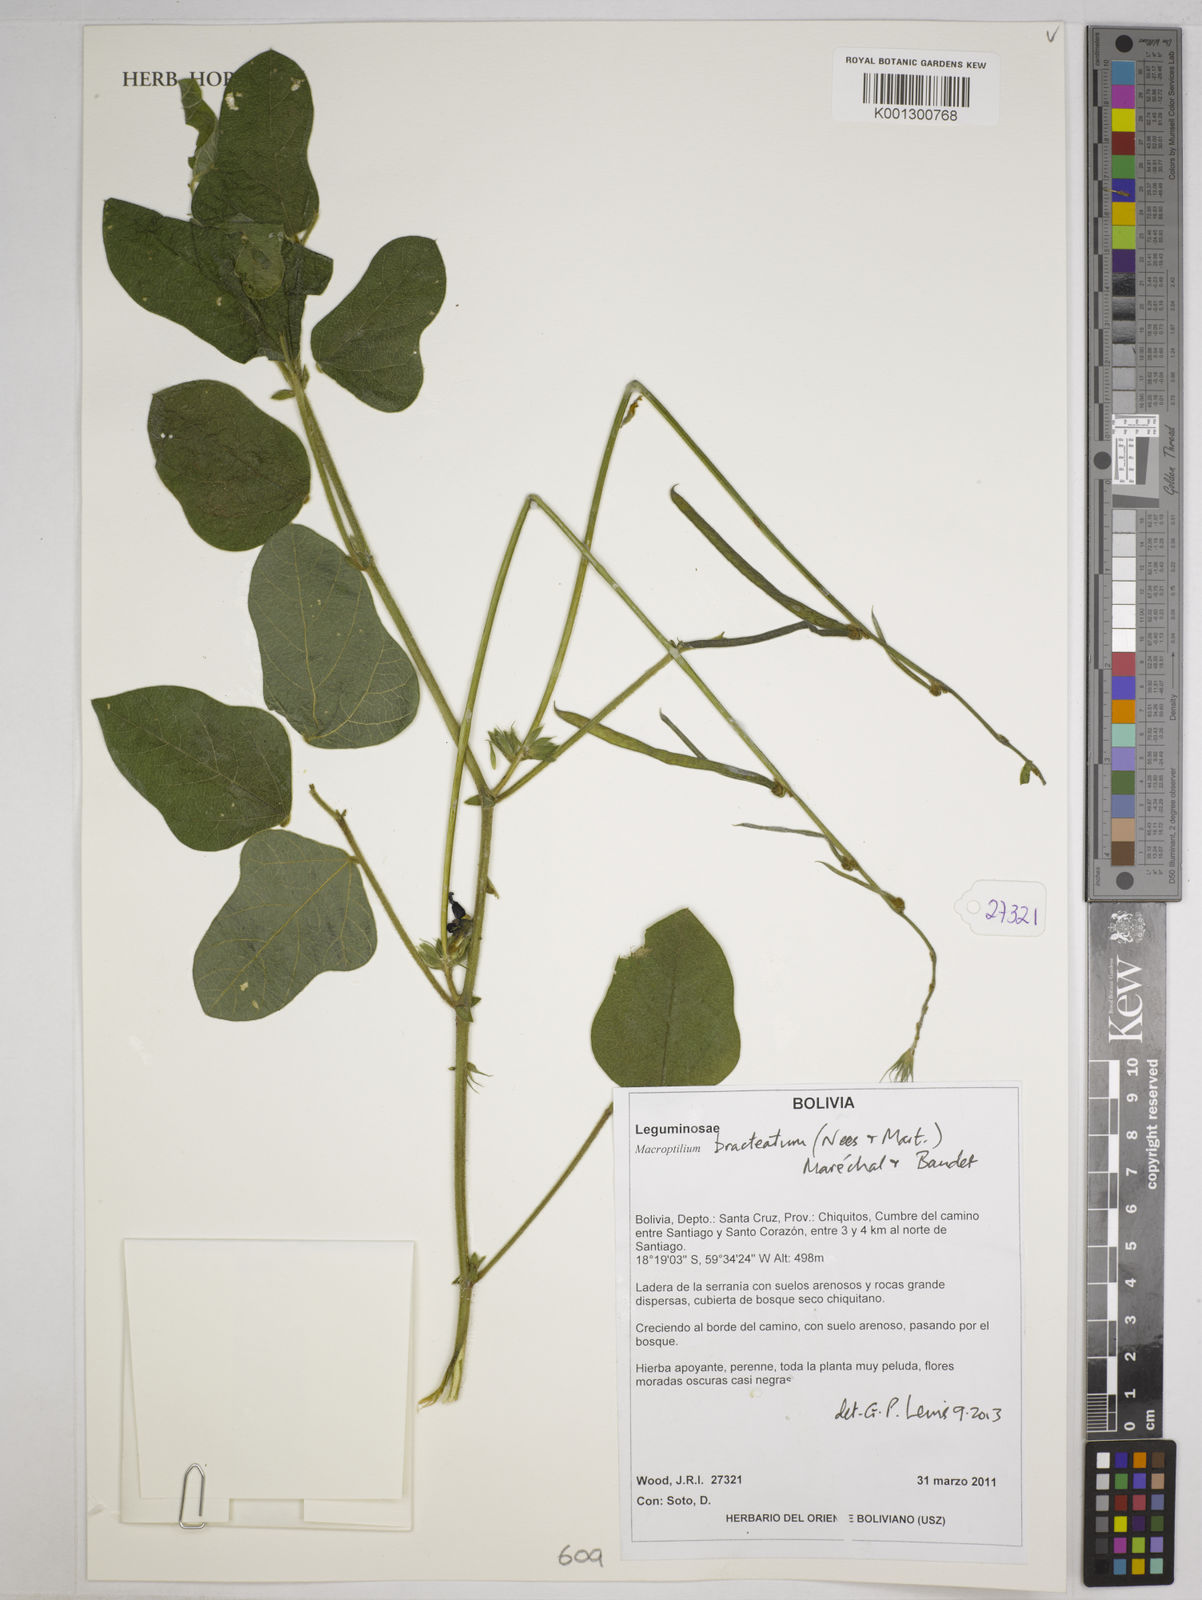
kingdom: Plantae
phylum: Tracheophyta
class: Magnoliopsida
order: Fabales
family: Fabaceae
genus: Macroptilium
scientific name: Macroptilium bracteatum
